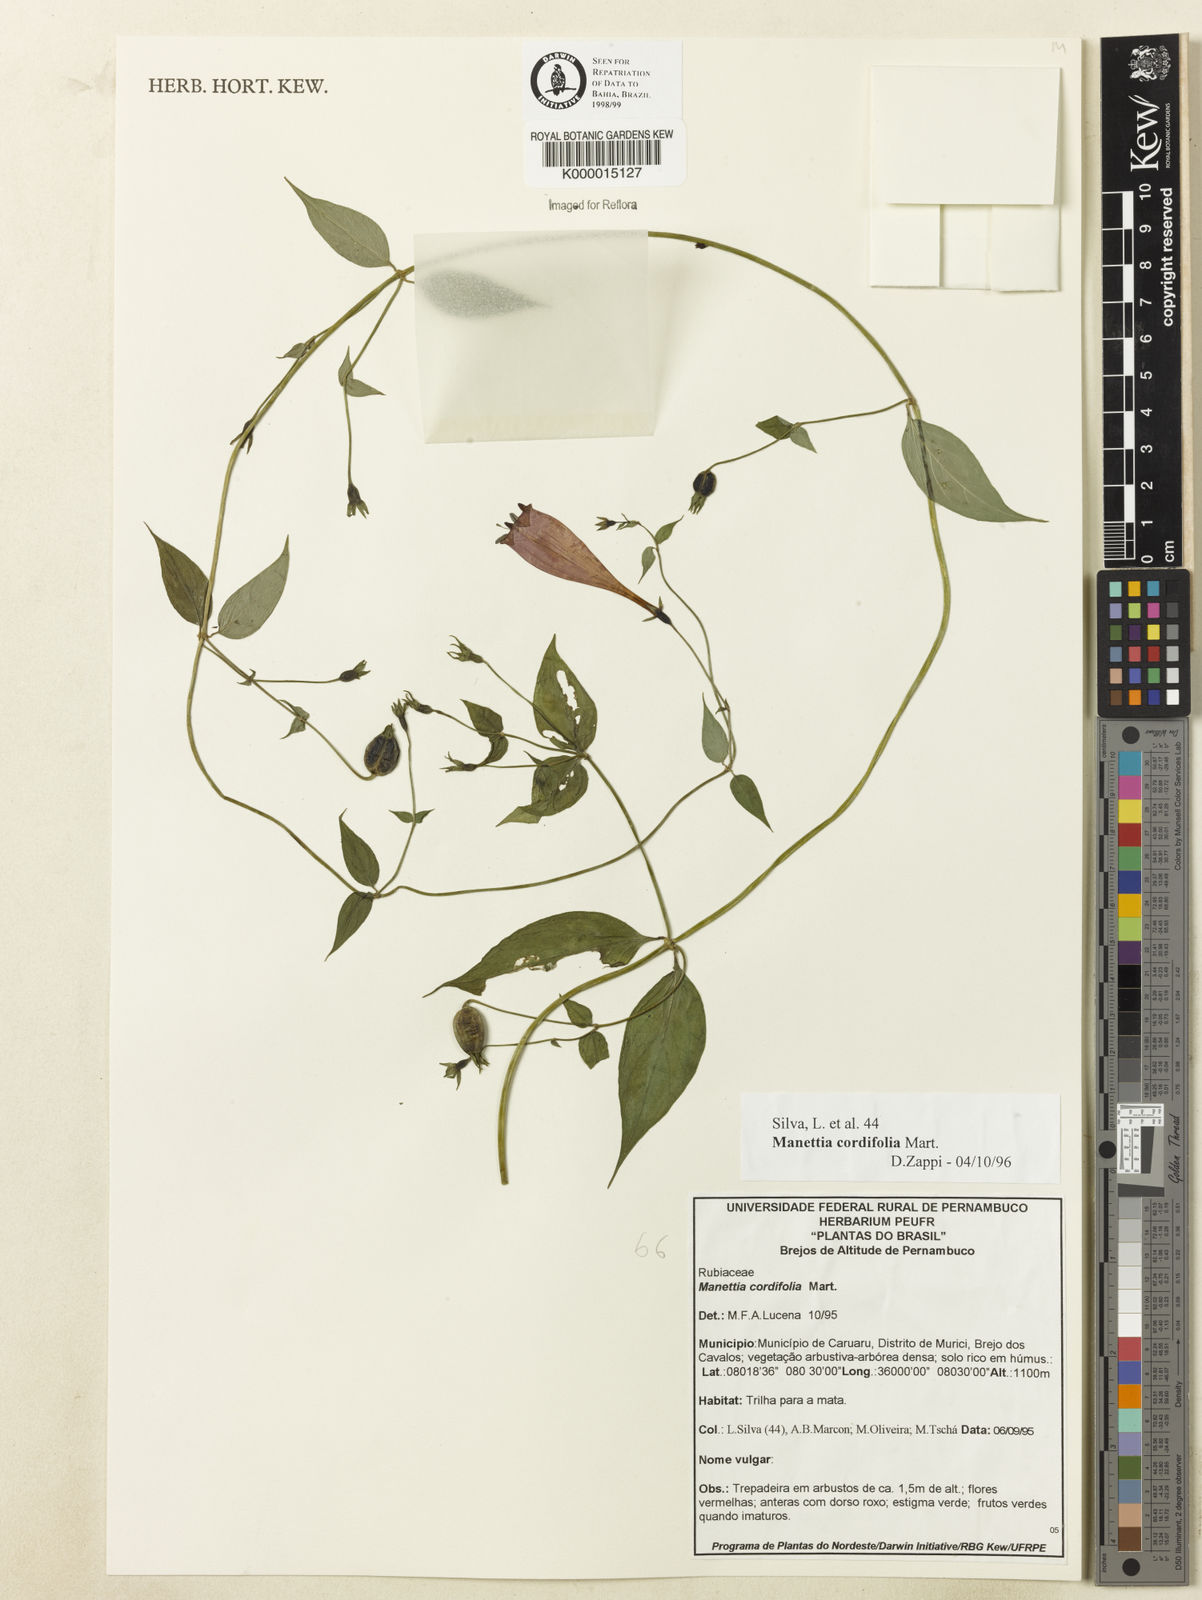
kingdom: Plantae
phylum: Tracheophyta
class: Magnoliopsida
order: Gentianales
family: Rubiaceae
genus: Manettia
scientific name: Manettia cordifolia
